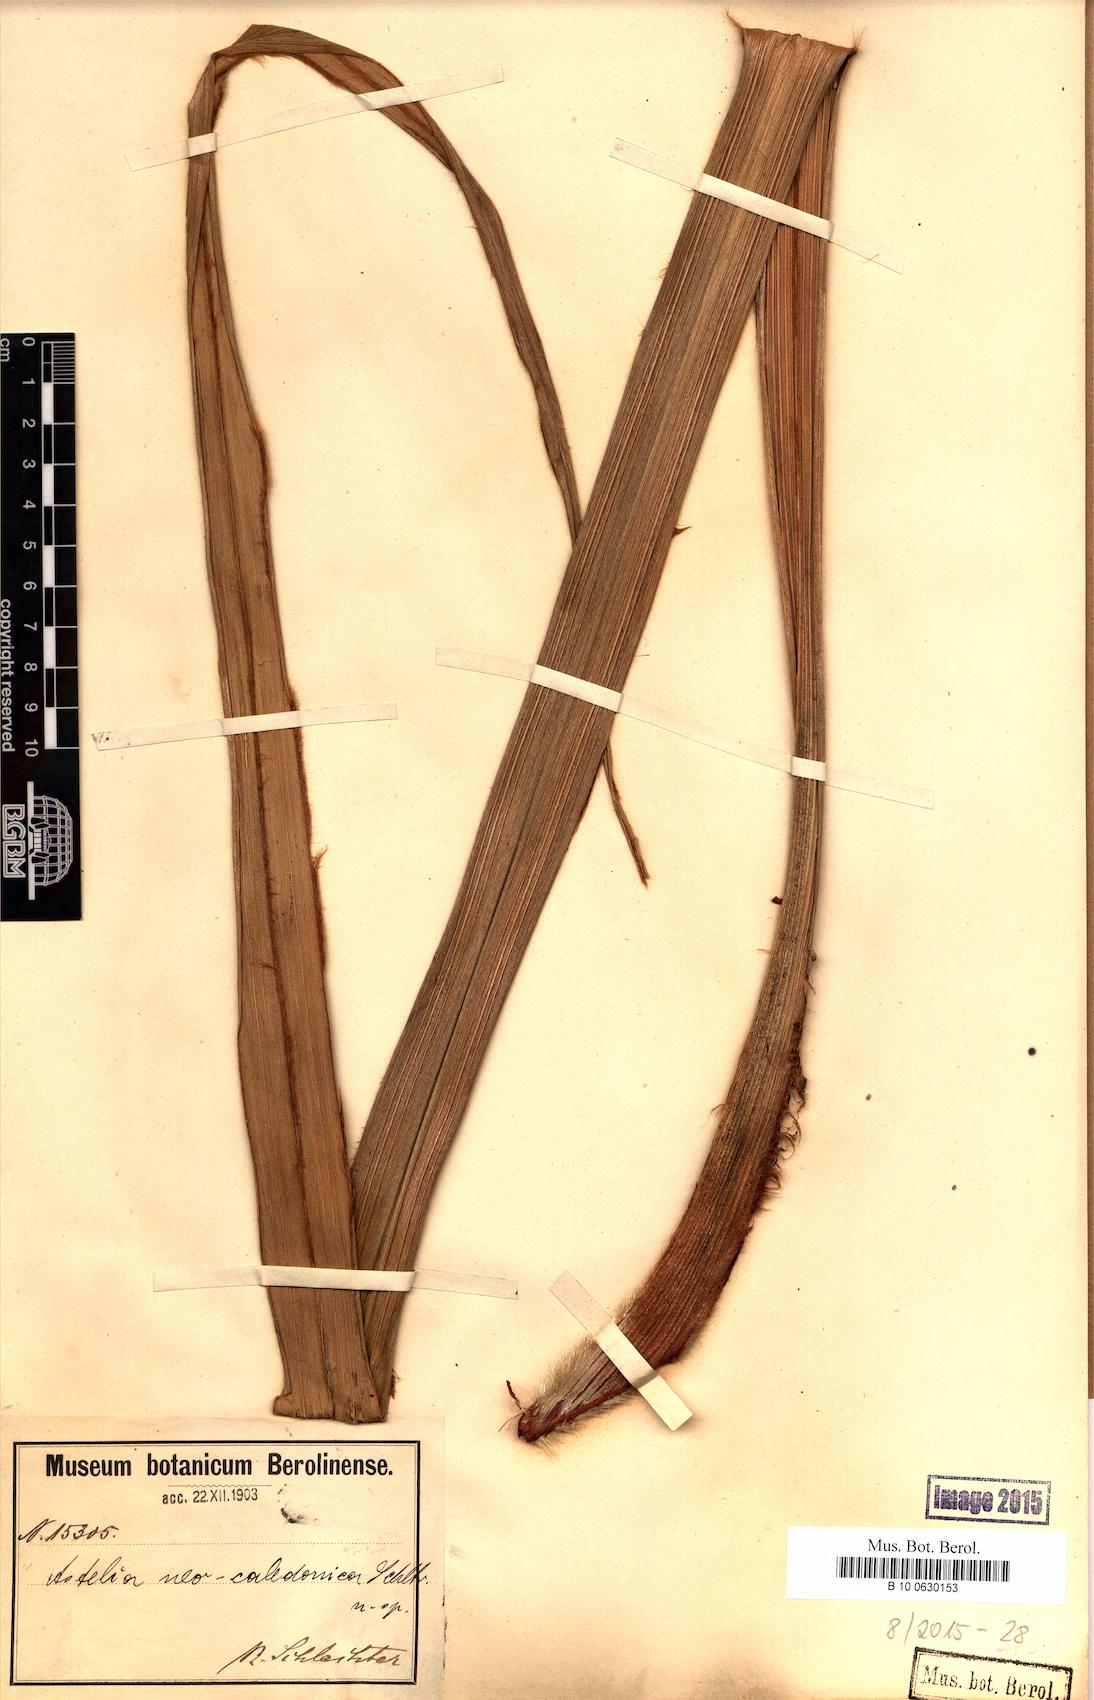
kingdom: Plantae
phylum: Tracheophyta
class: Liliopsida
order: Asparagales
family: Asteliaceae
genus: Astelia
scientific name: Astelia neocaledonica
